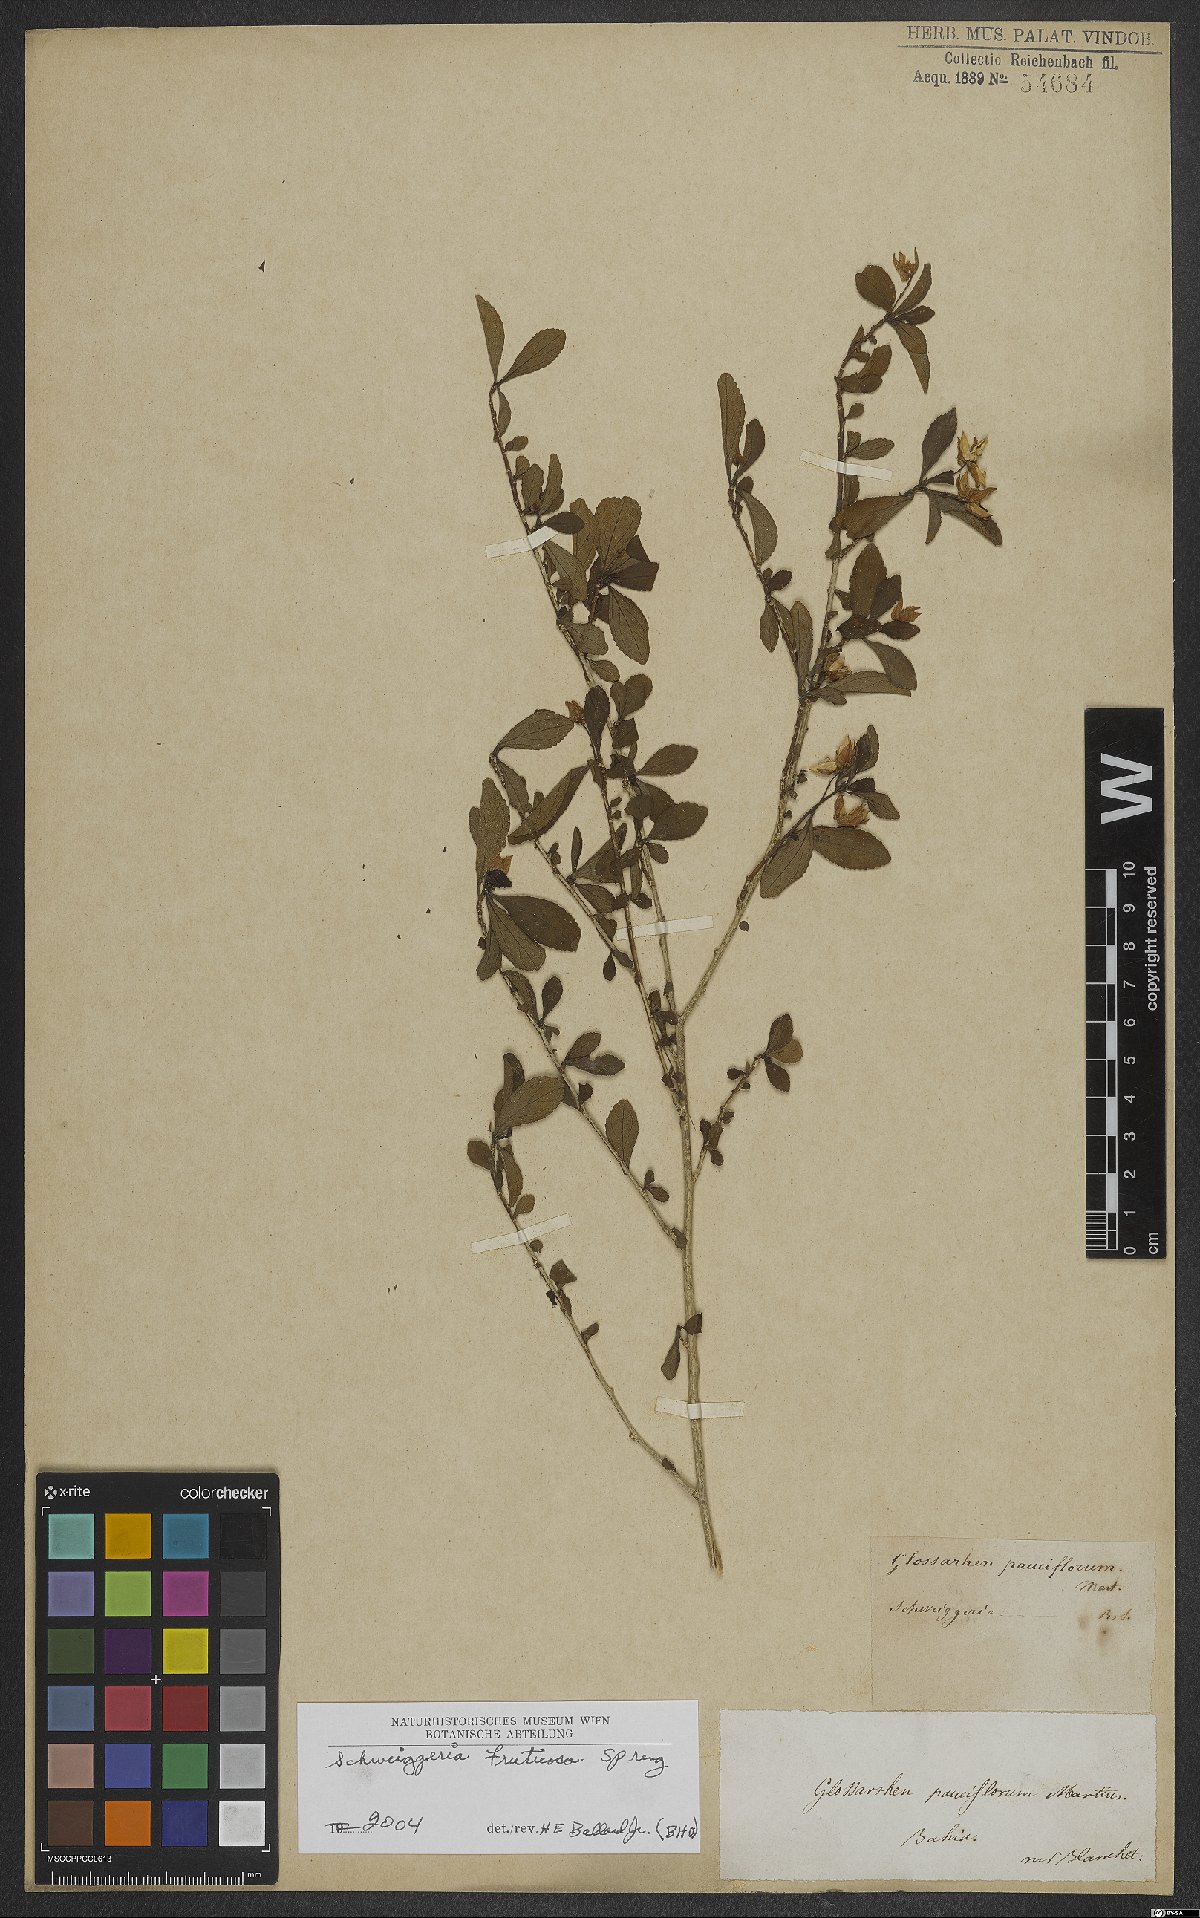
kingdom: Plantae
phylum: Tracheophyta
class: Magnoliopsida
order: Malpighiales
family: Violaceae
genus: Schweiggeria
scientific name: Schweiggeria fruticosa
